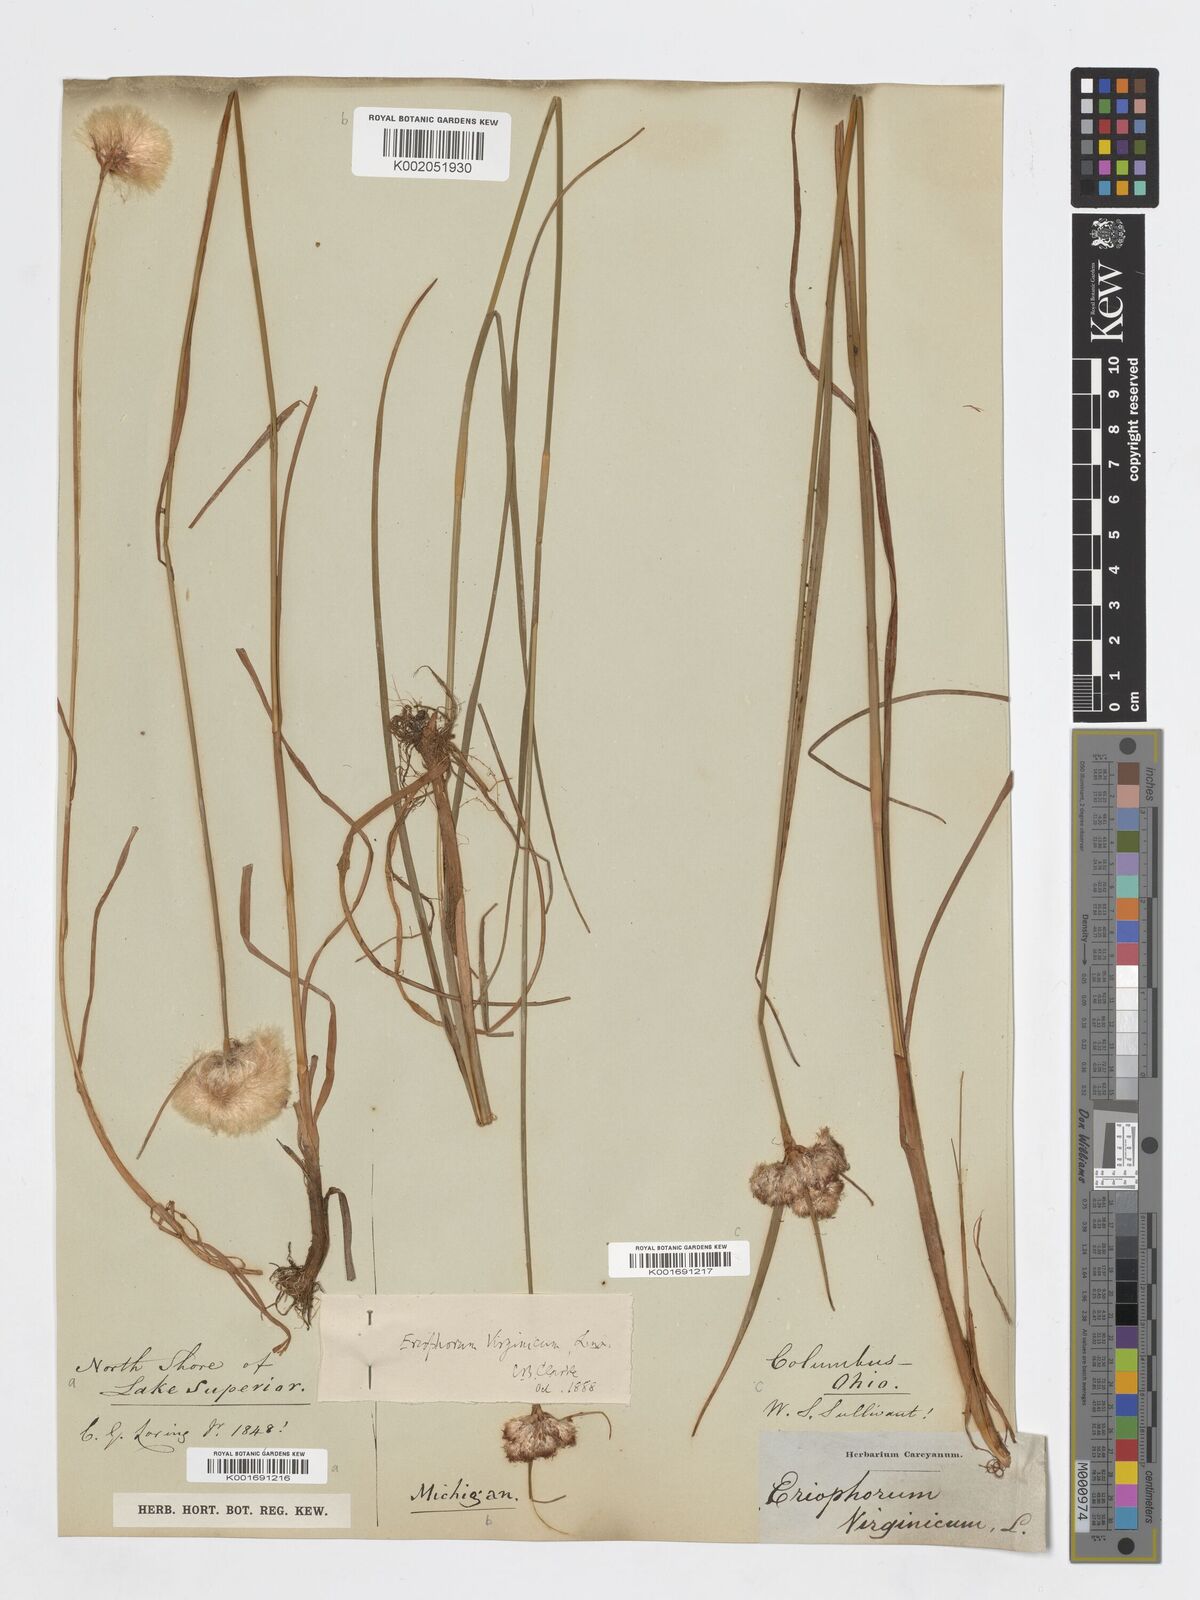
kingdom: Plantae
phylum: Tracheophyta
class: Liliopsida
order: Poales
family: Cyperaceae
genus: Eriophorum
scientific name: Eriophorum virginicum
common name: Tawny cottongrass
